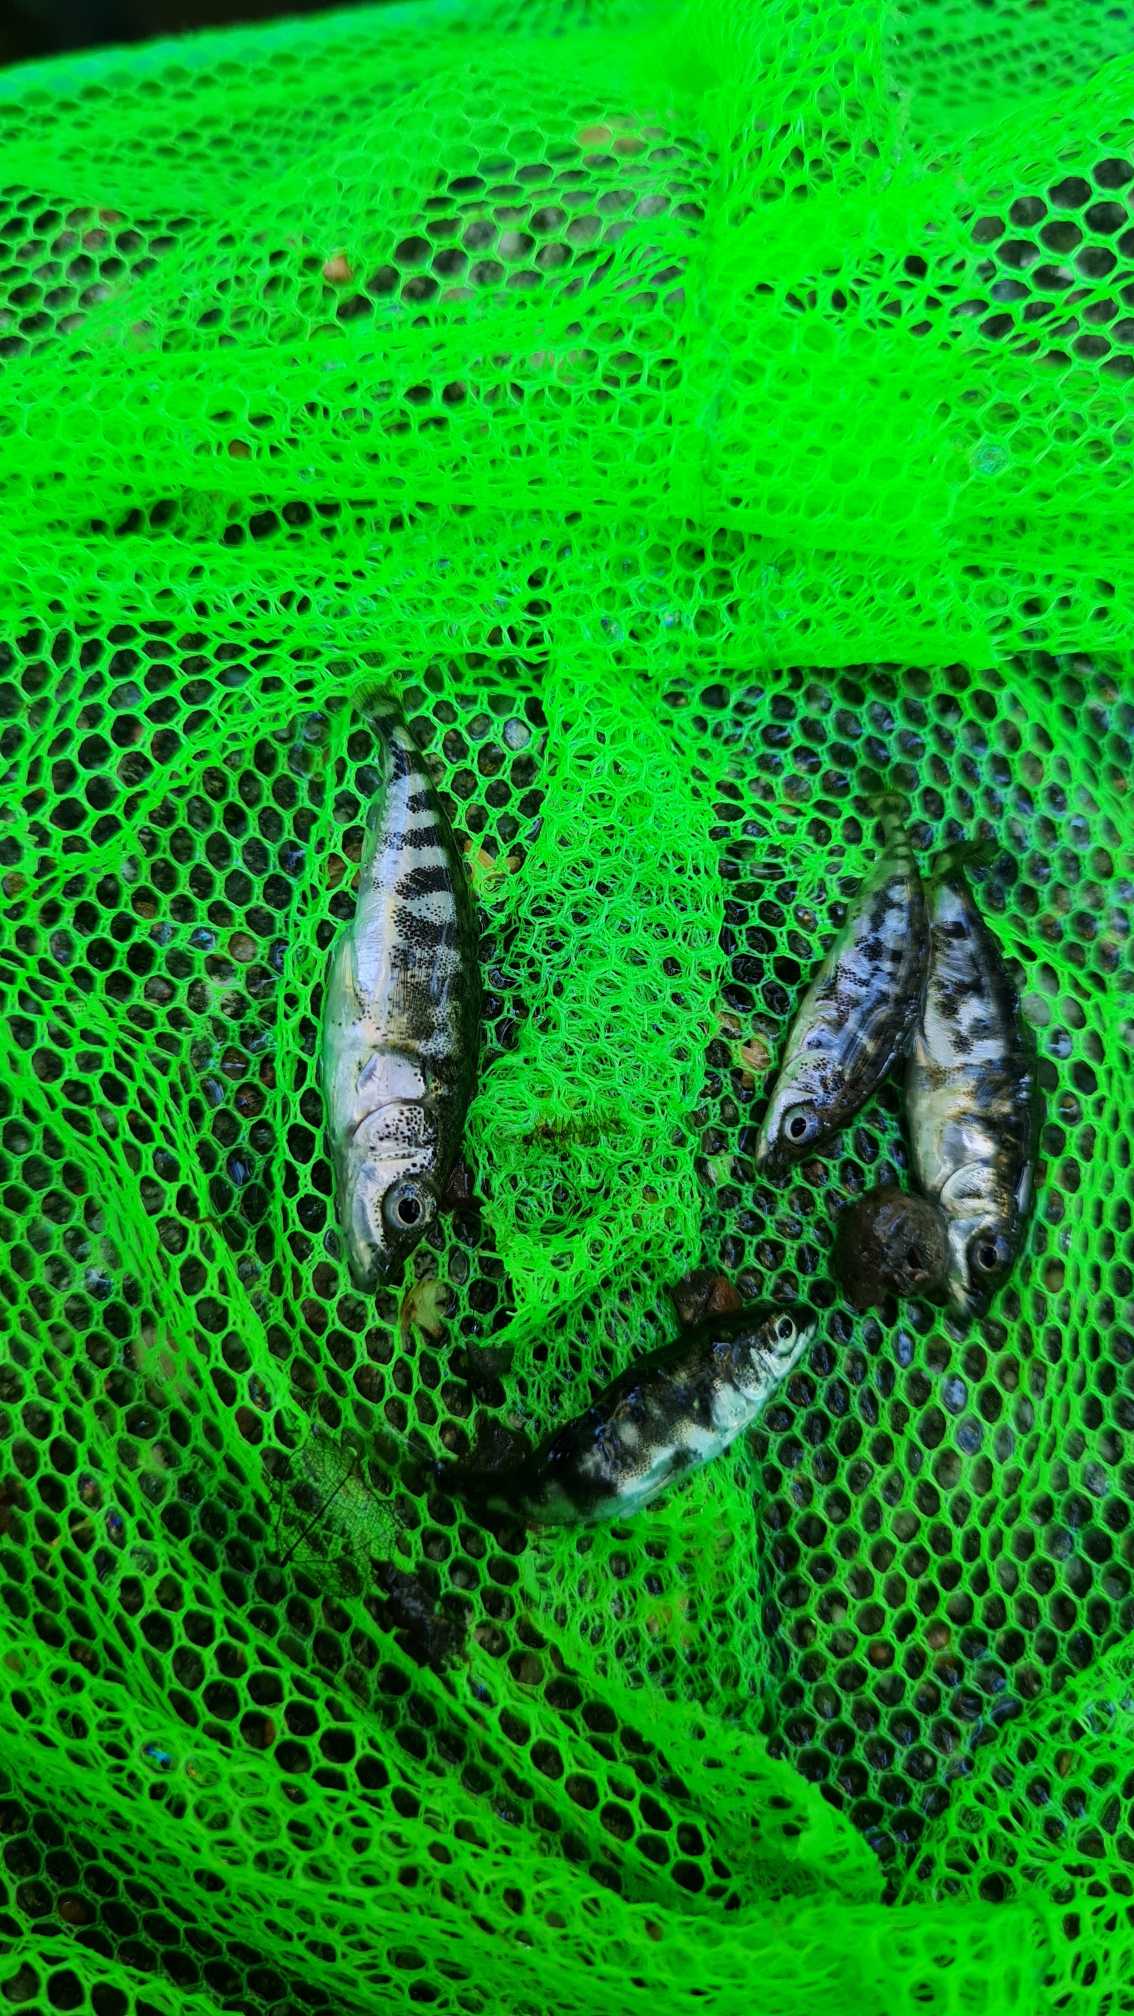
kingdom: Animalia
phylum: Chordata
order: Gasterosteiformes
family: Gasterosteidae
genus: Gasterosteus
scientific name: Gasterosteus aculeatus
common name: Trepigget hundestejle
